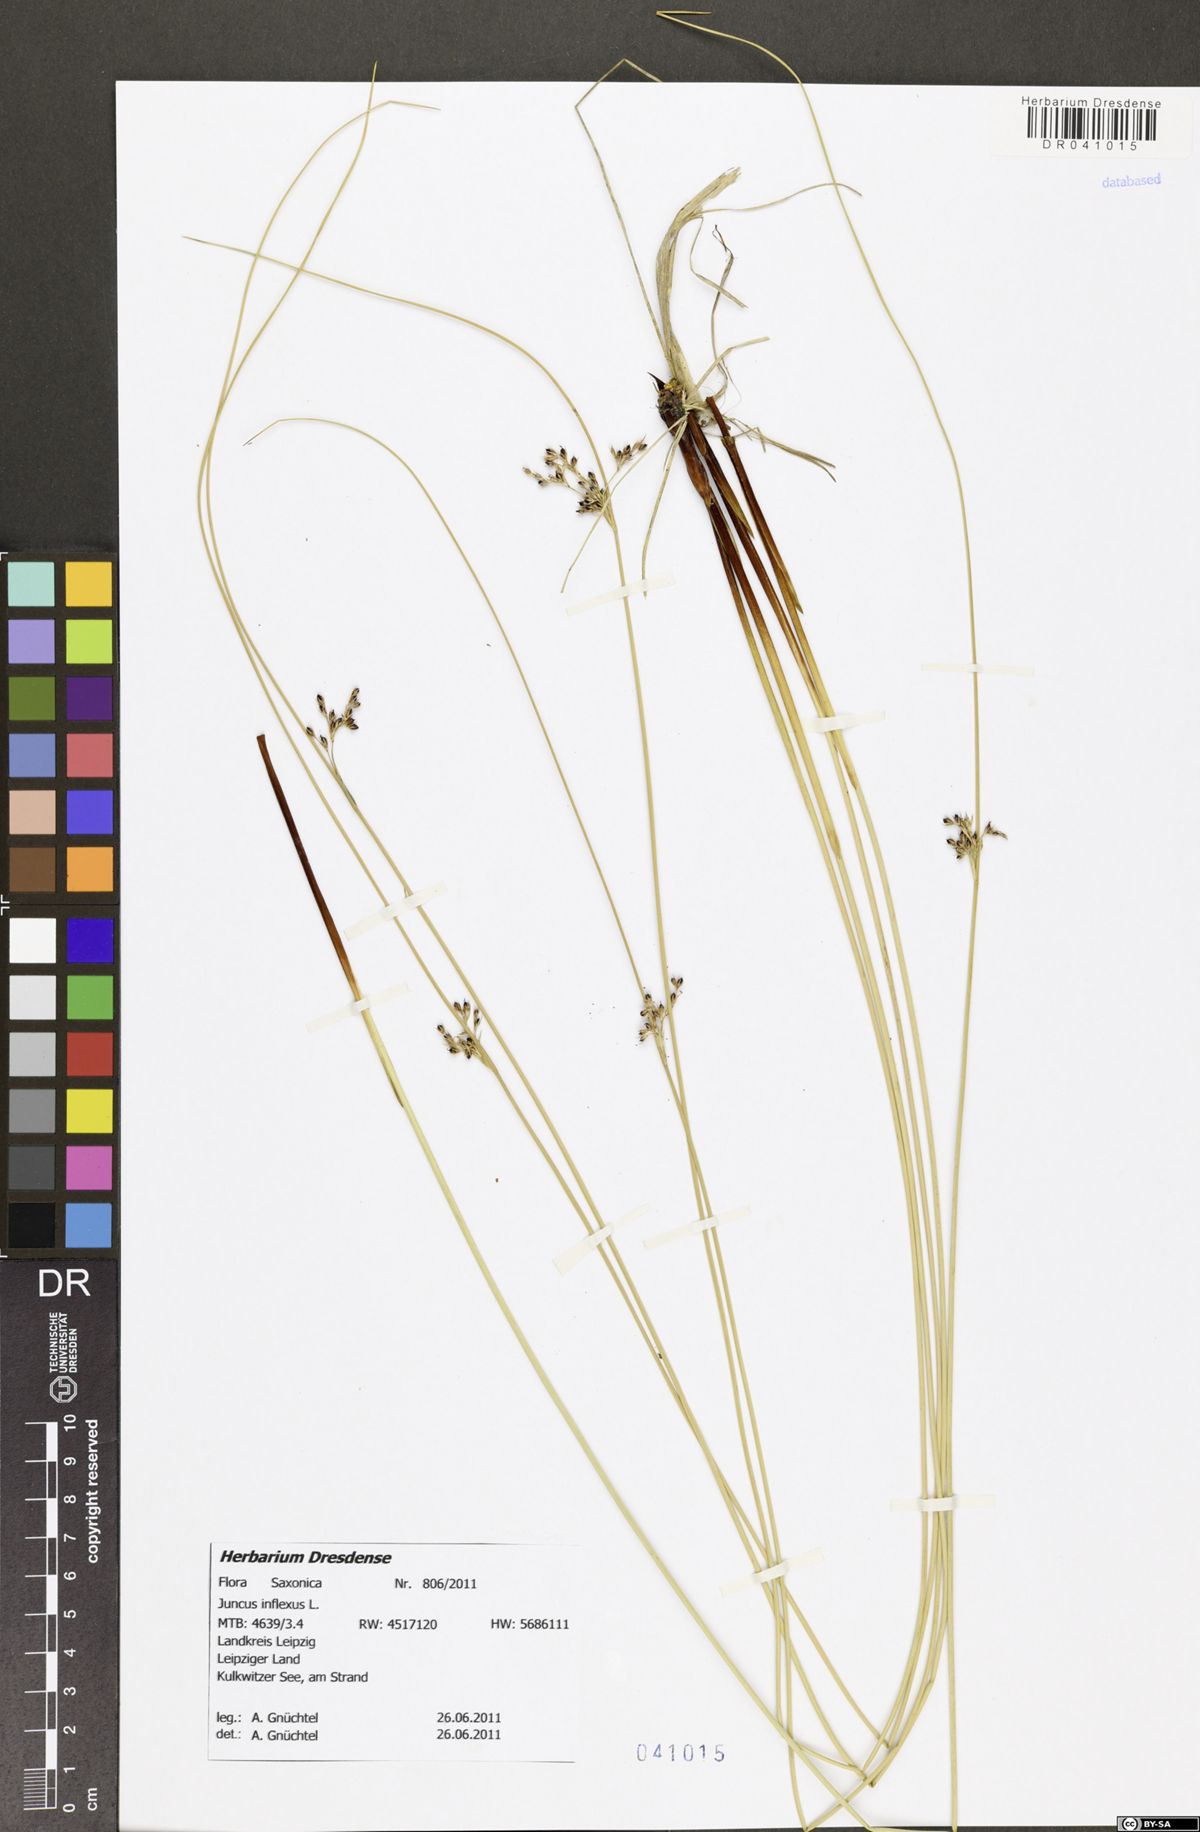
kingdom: Plantae
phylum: Tracheophyta
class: Liliopsida
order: Poales
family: Juncaceae
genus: Juncus
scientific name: Juncus inflexus
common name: Hard rush
